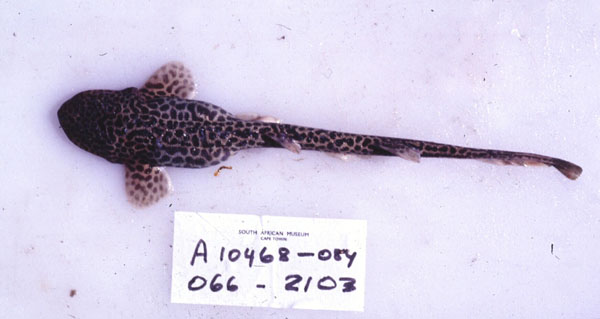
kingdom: Animalia
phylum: Chordata
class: Elasmobranchii
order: Carcharhiniformes
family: Scyliorhinidae
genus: Holohalaelurus
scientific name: Holohalaelurus regani
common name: Izak
